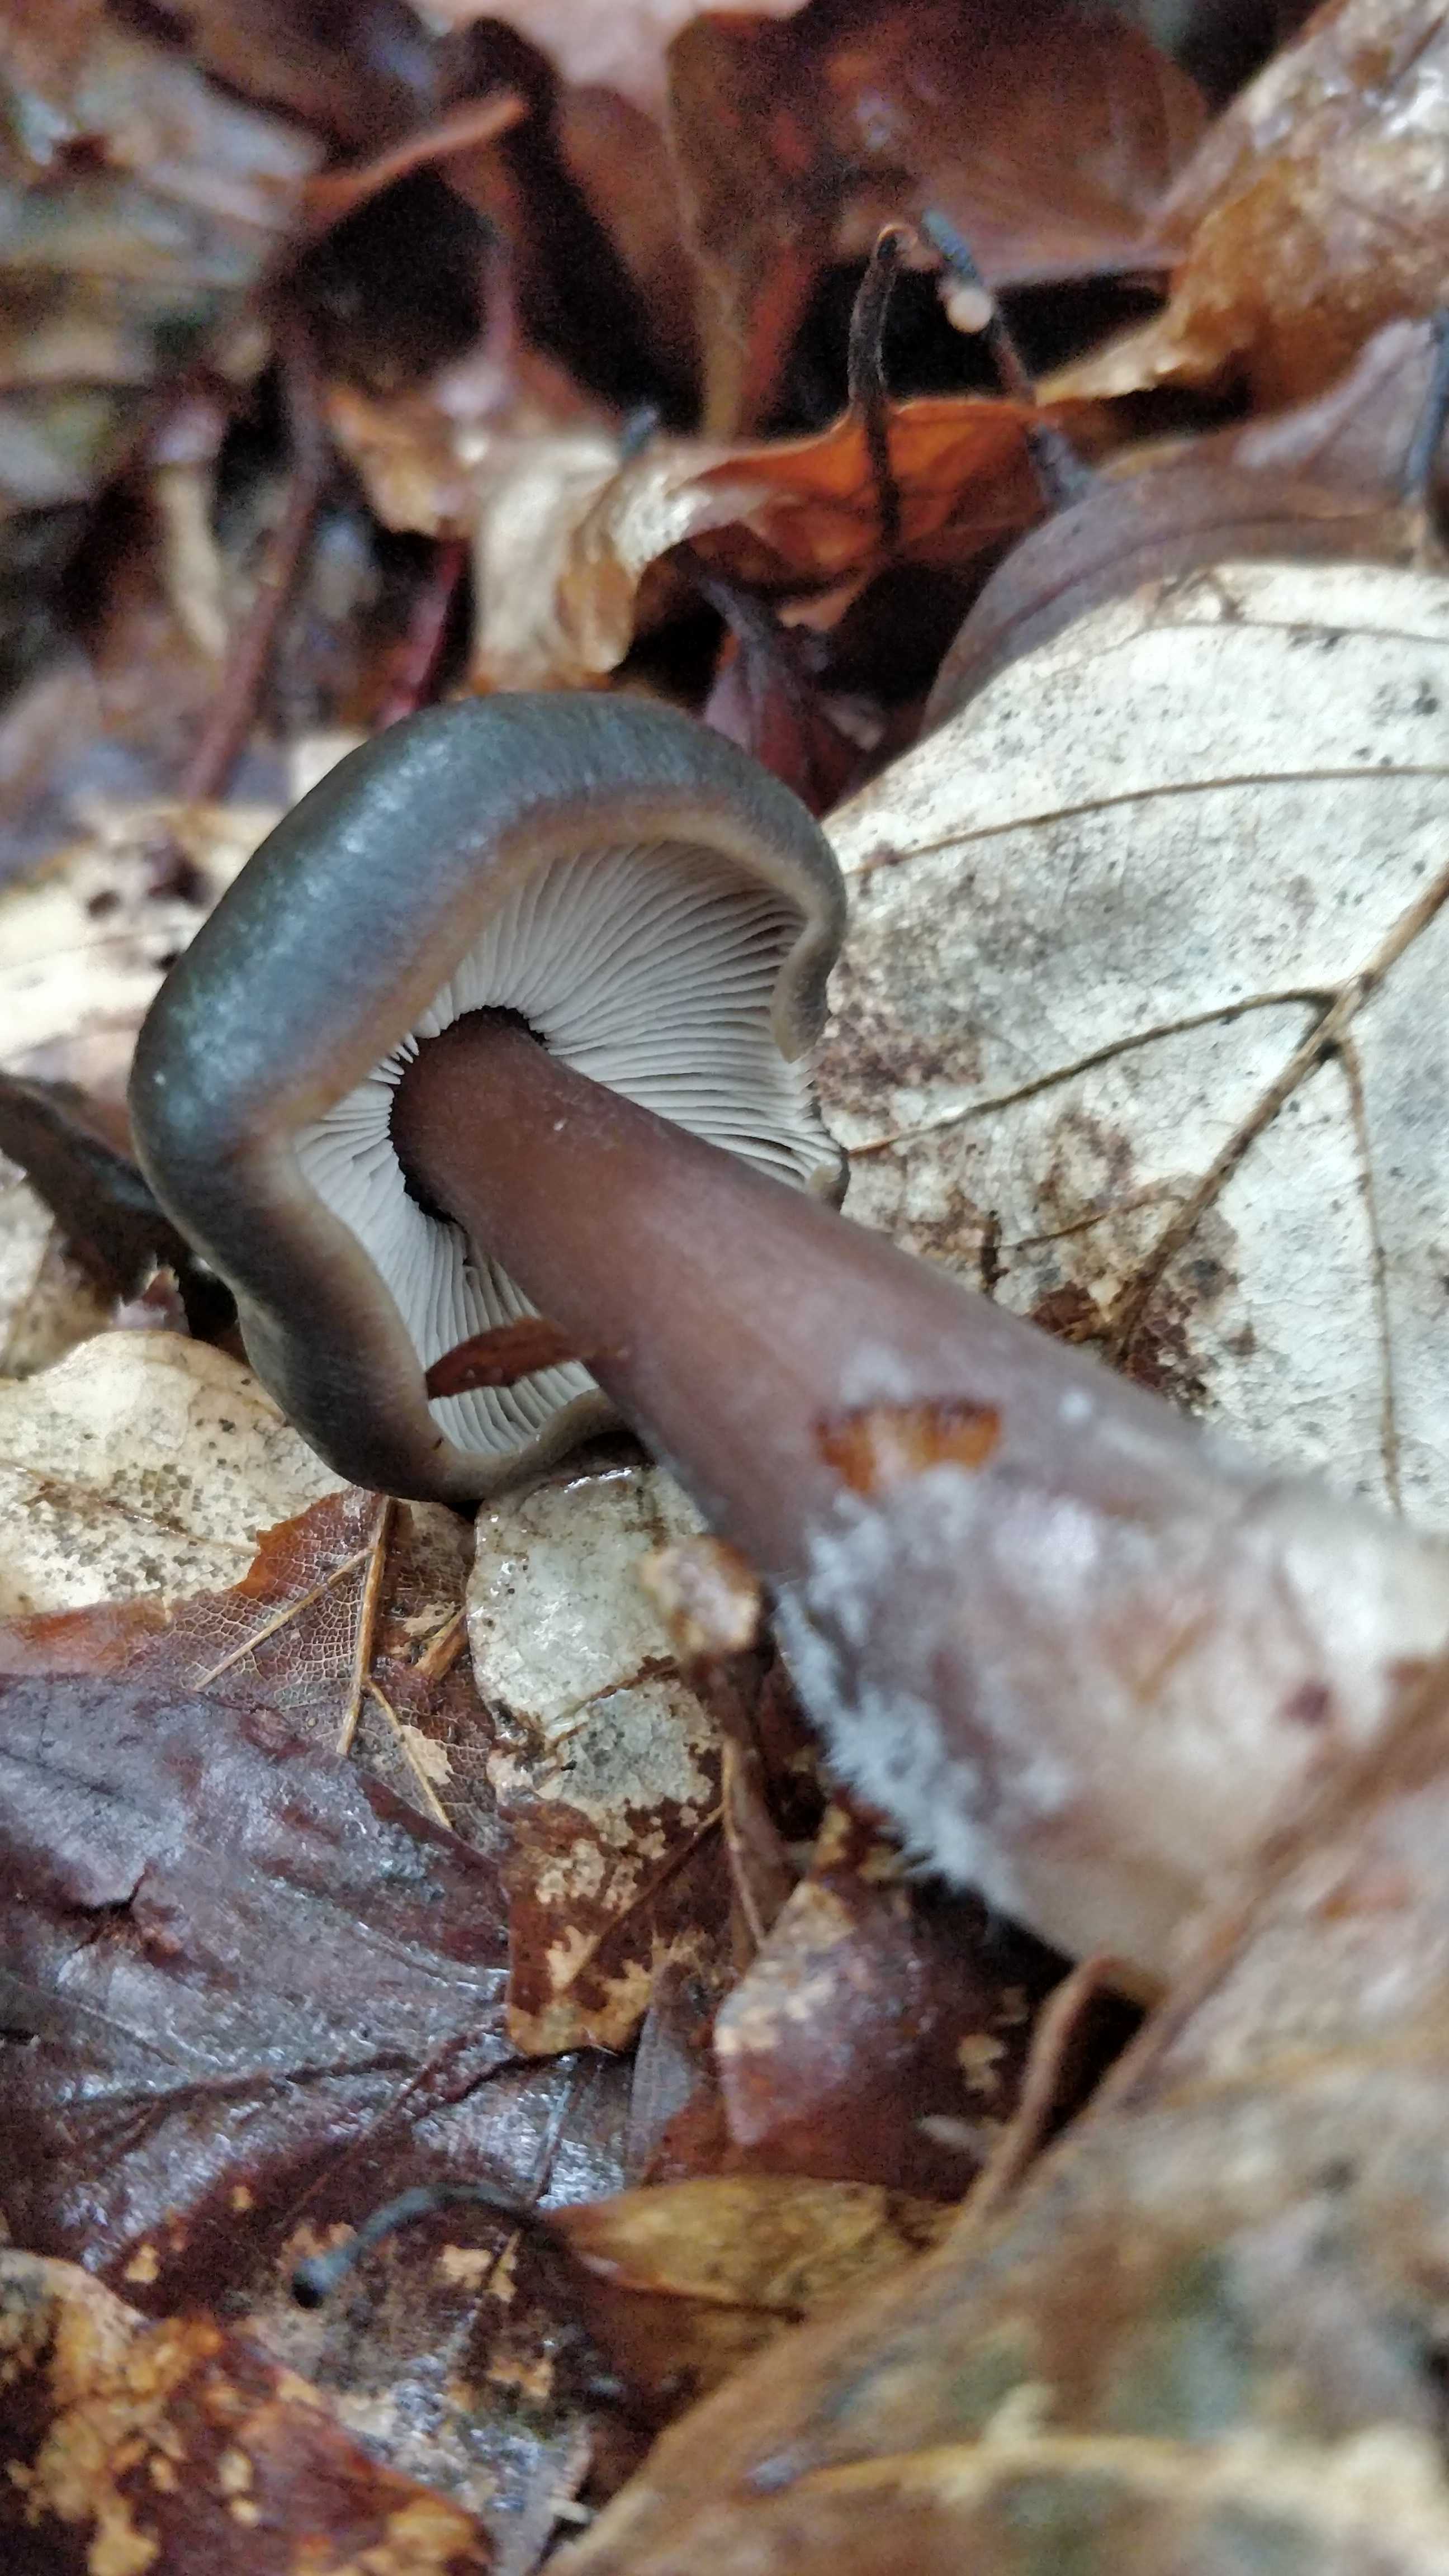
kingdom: Fungi
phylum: Basidiomycota
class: Agaricomycetes
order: Agaricales
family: Omphalotaceae
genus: Rhodocollybia
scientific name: Rhodocollybia asema
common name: horngrå fladhat
